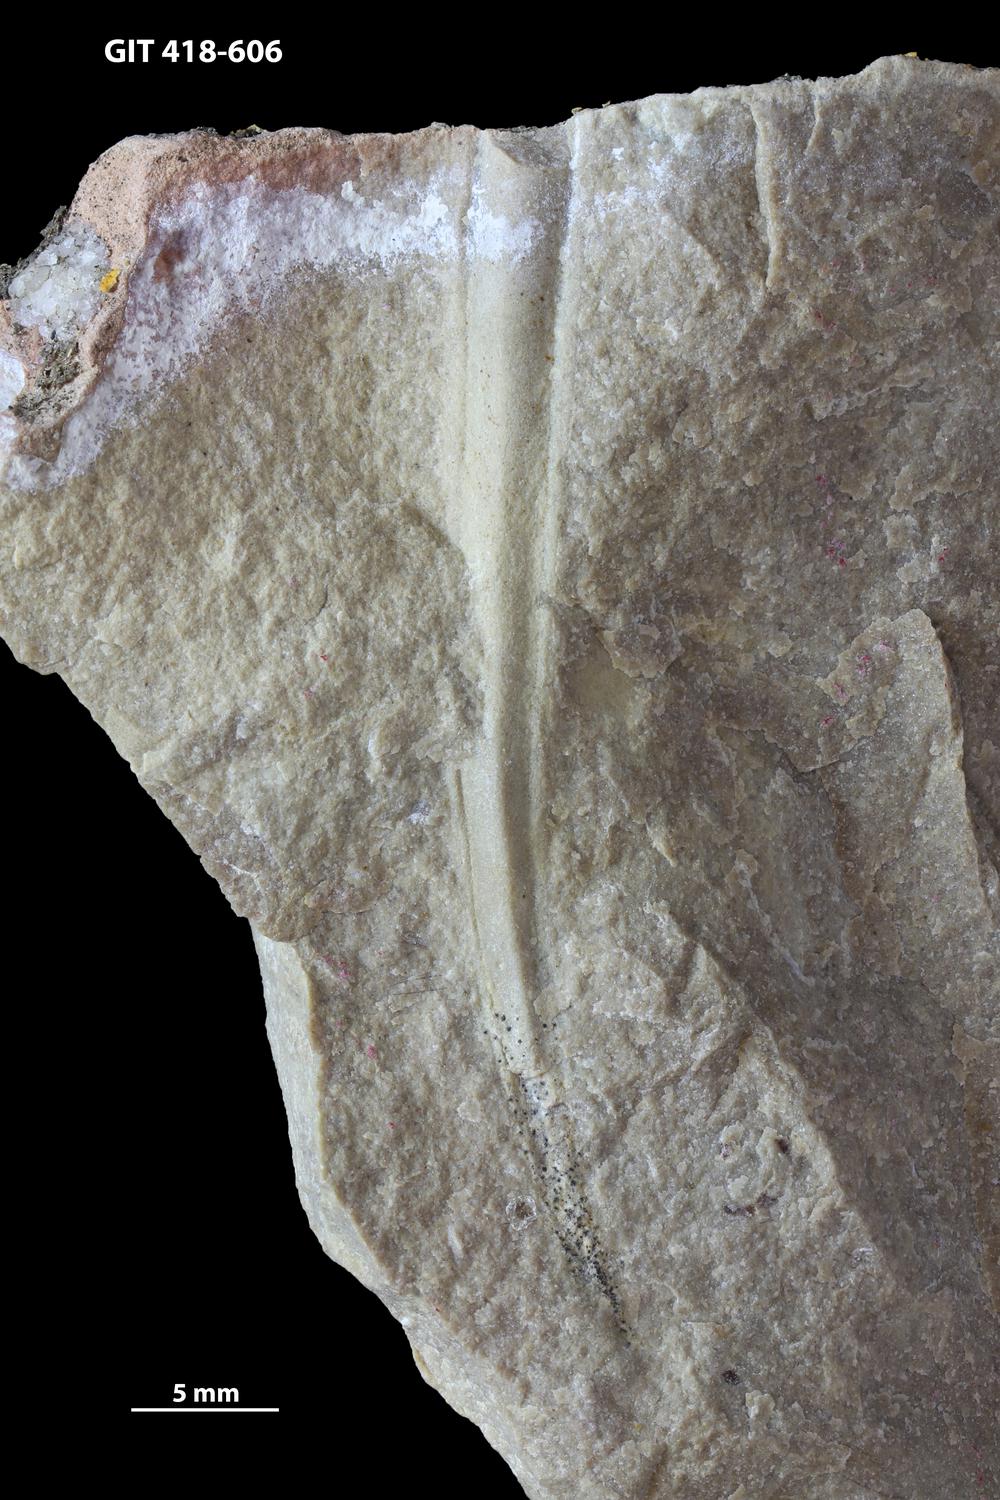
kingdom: Animalia
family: Hyolithidae
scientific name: Hyolithidae
